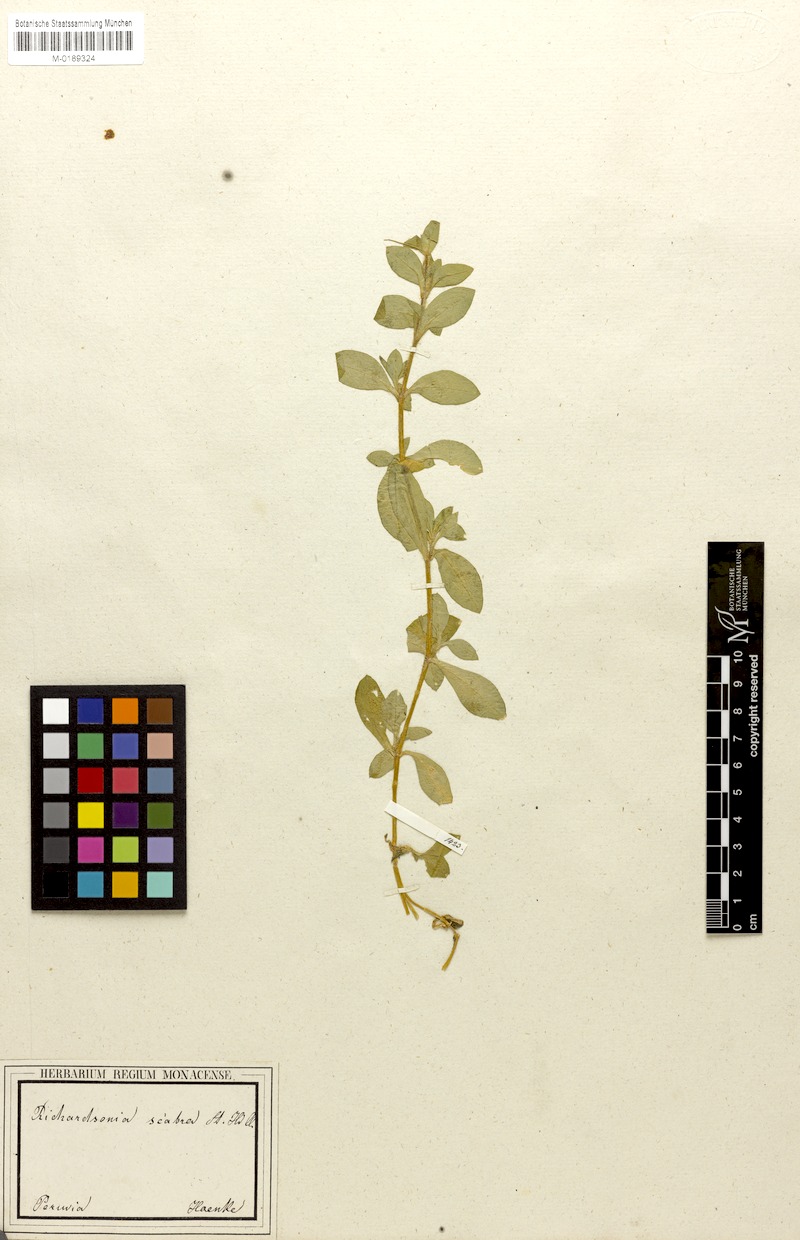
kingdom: Plantae
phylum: Tracheophyta
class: Magnoliopsida
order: Gentianales
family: Rubiaceae
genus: Richardia
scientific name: Richardia brasiliensis
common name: Tropical mexican clover
